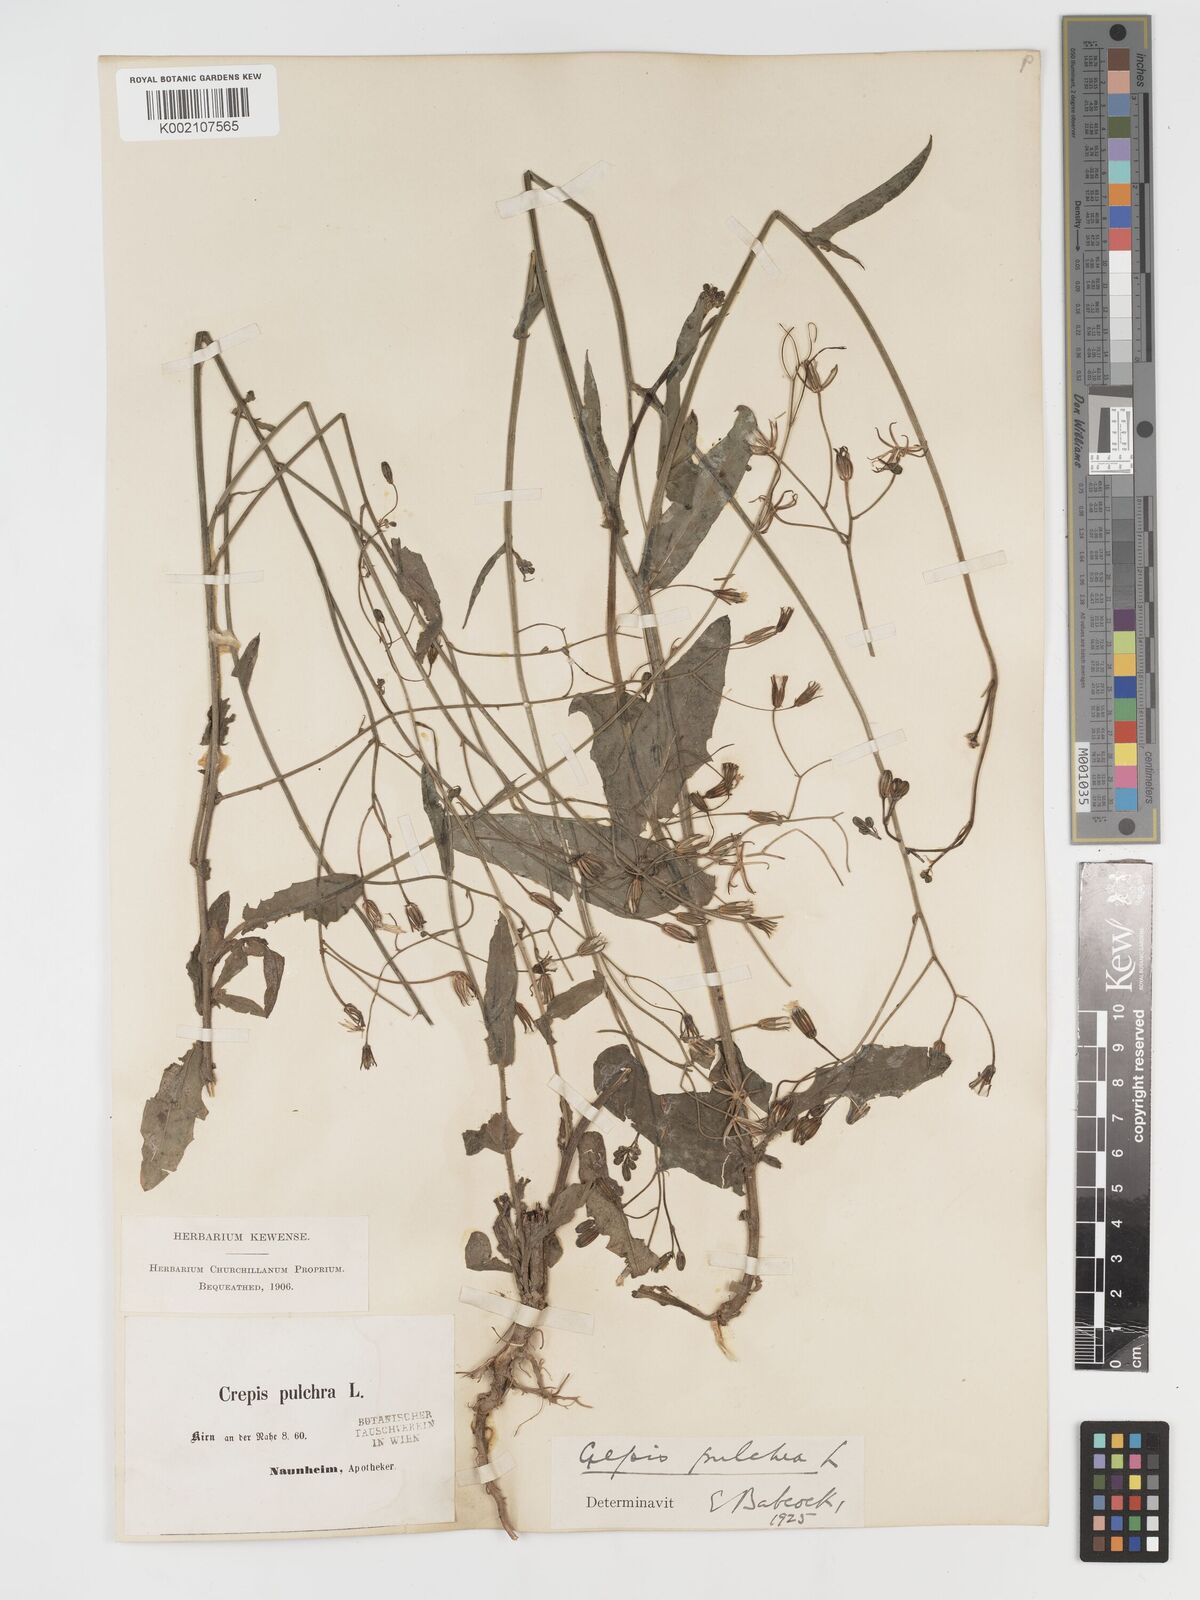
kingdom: Plantae
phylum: Tracheophyta
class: Magnoliopsida
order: Asterales
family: Asteraceae
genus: Crepis
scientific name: Crepis pulchra
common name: Hawk's-beard
